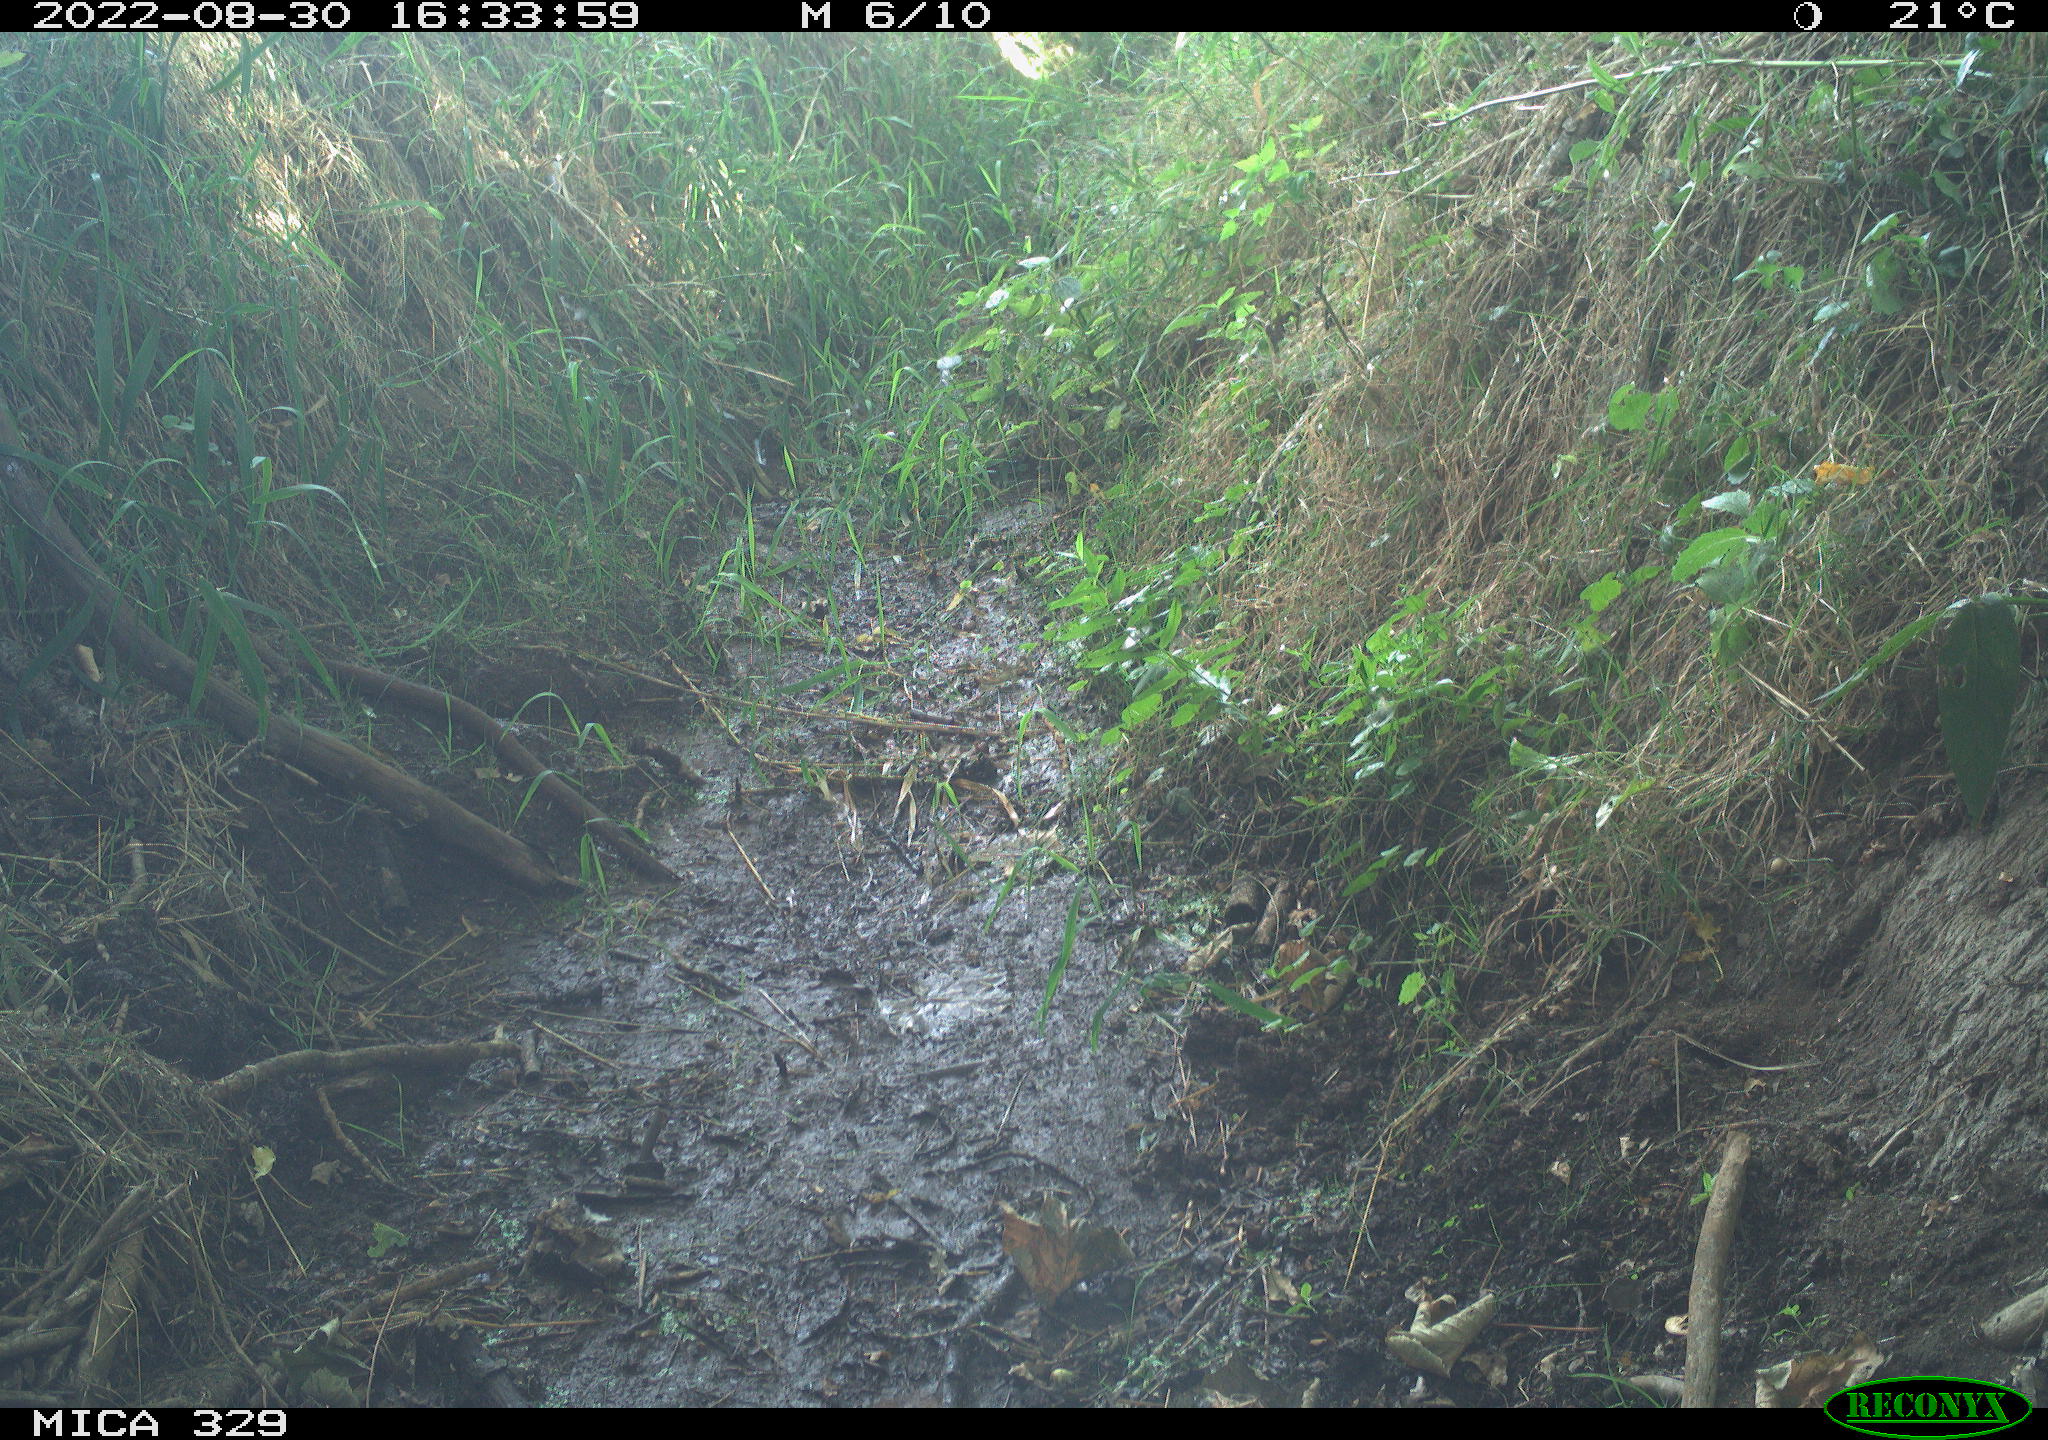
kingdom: Animalia
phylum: Chordata
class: Mammalia
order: Rodentia
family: Sciuridae
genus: Sciurus
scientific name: Sciurus vulgaris
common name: Eurasian red squirrel
